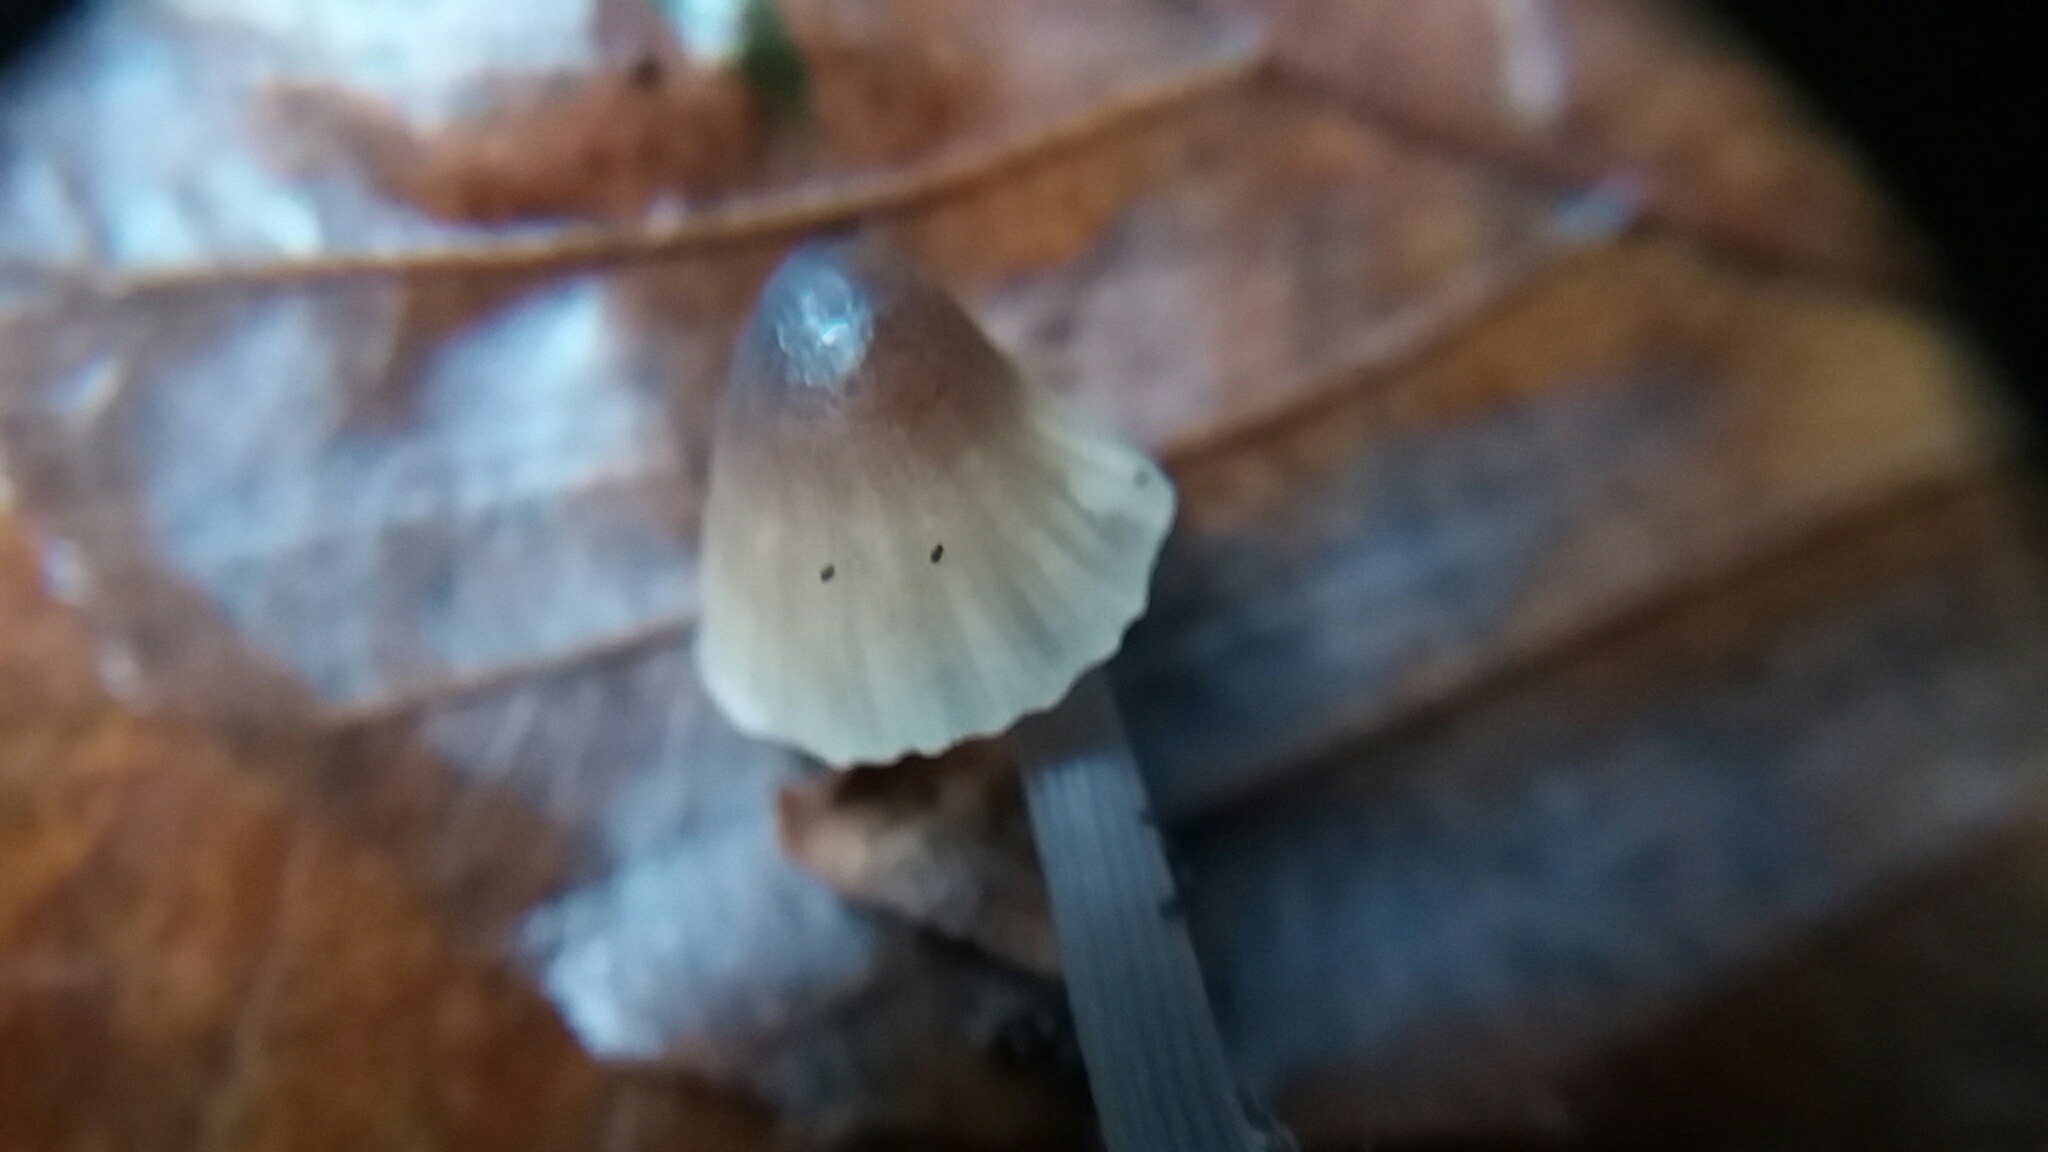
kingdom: Fungi
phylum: Basidiomycota
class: Agaricomycetes
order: Agaricales
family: Mycenaceae
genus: Mycena
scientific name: Mycena
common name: huesvamp
